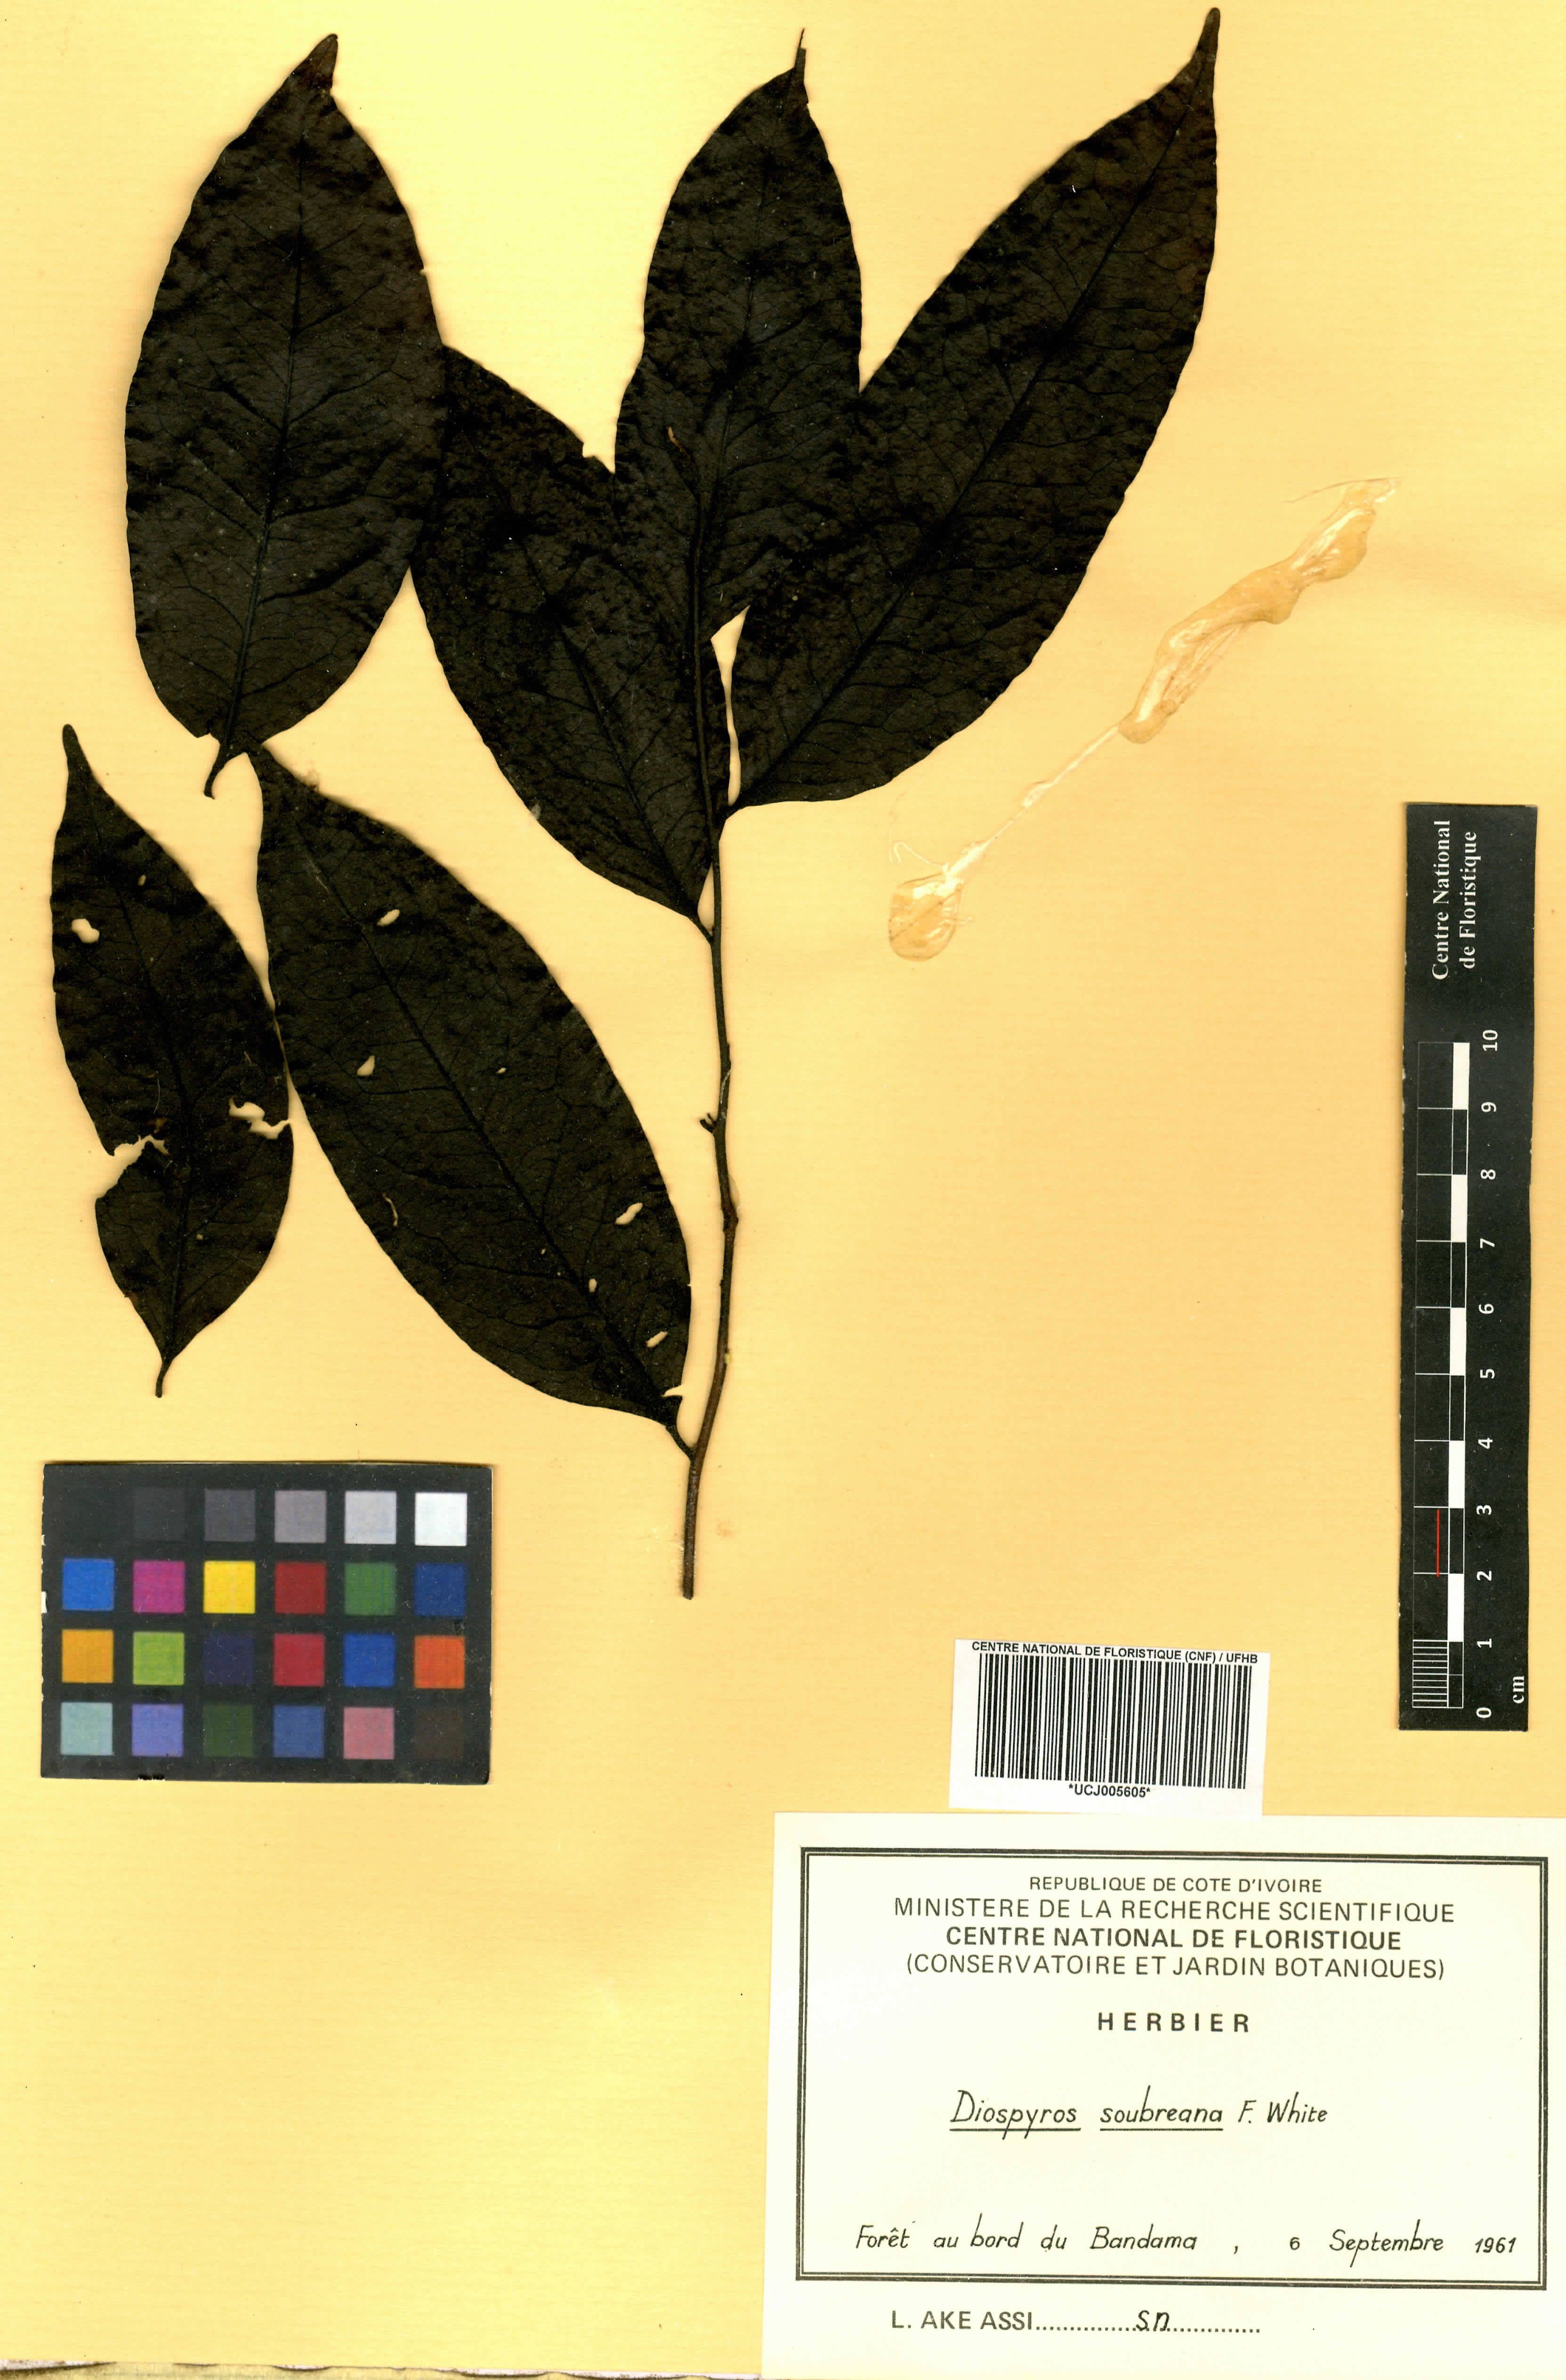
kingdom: Plantae
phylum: Tracheophyta
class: Magnoliopsida
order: Ericales
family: Ebenaceae
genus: Diospyros
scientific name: Diospyros soubreana
